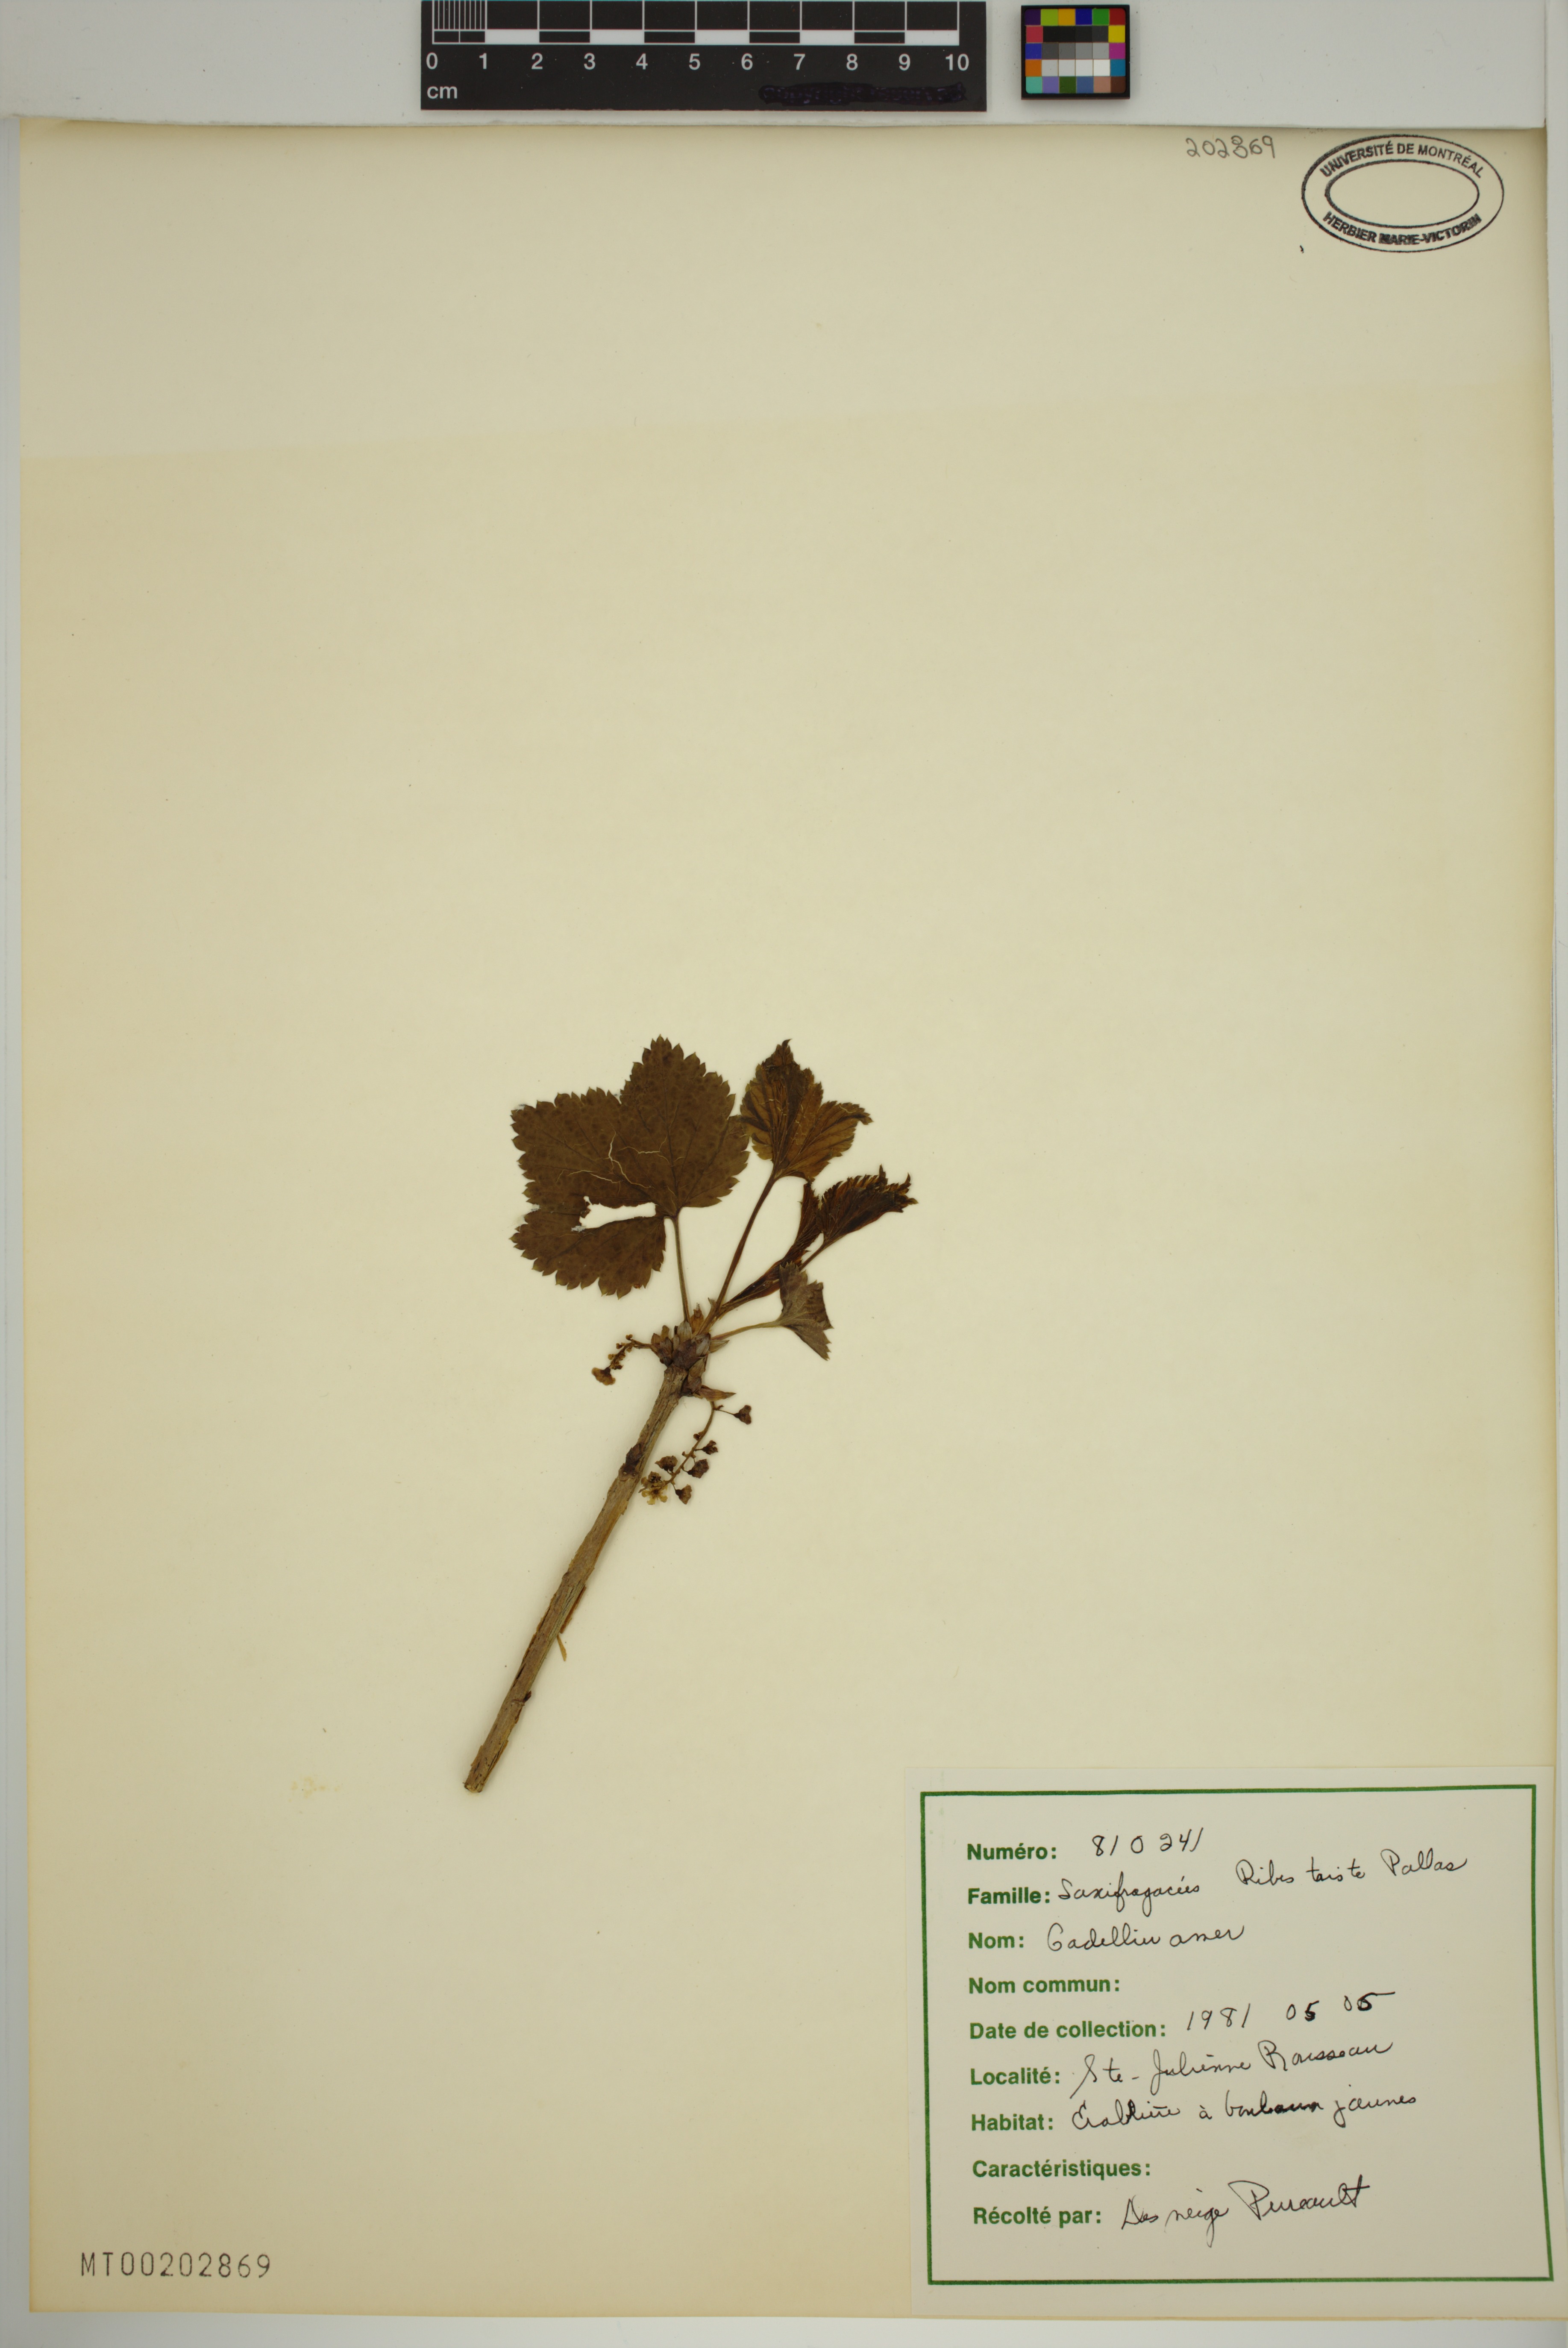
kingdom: Plantae
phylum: Tracheophyta
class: Magnoliopsida
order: Saxifragales
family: Grossulariaceae
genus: Ribes
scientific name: Ribes triste
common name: Swamp red currant
